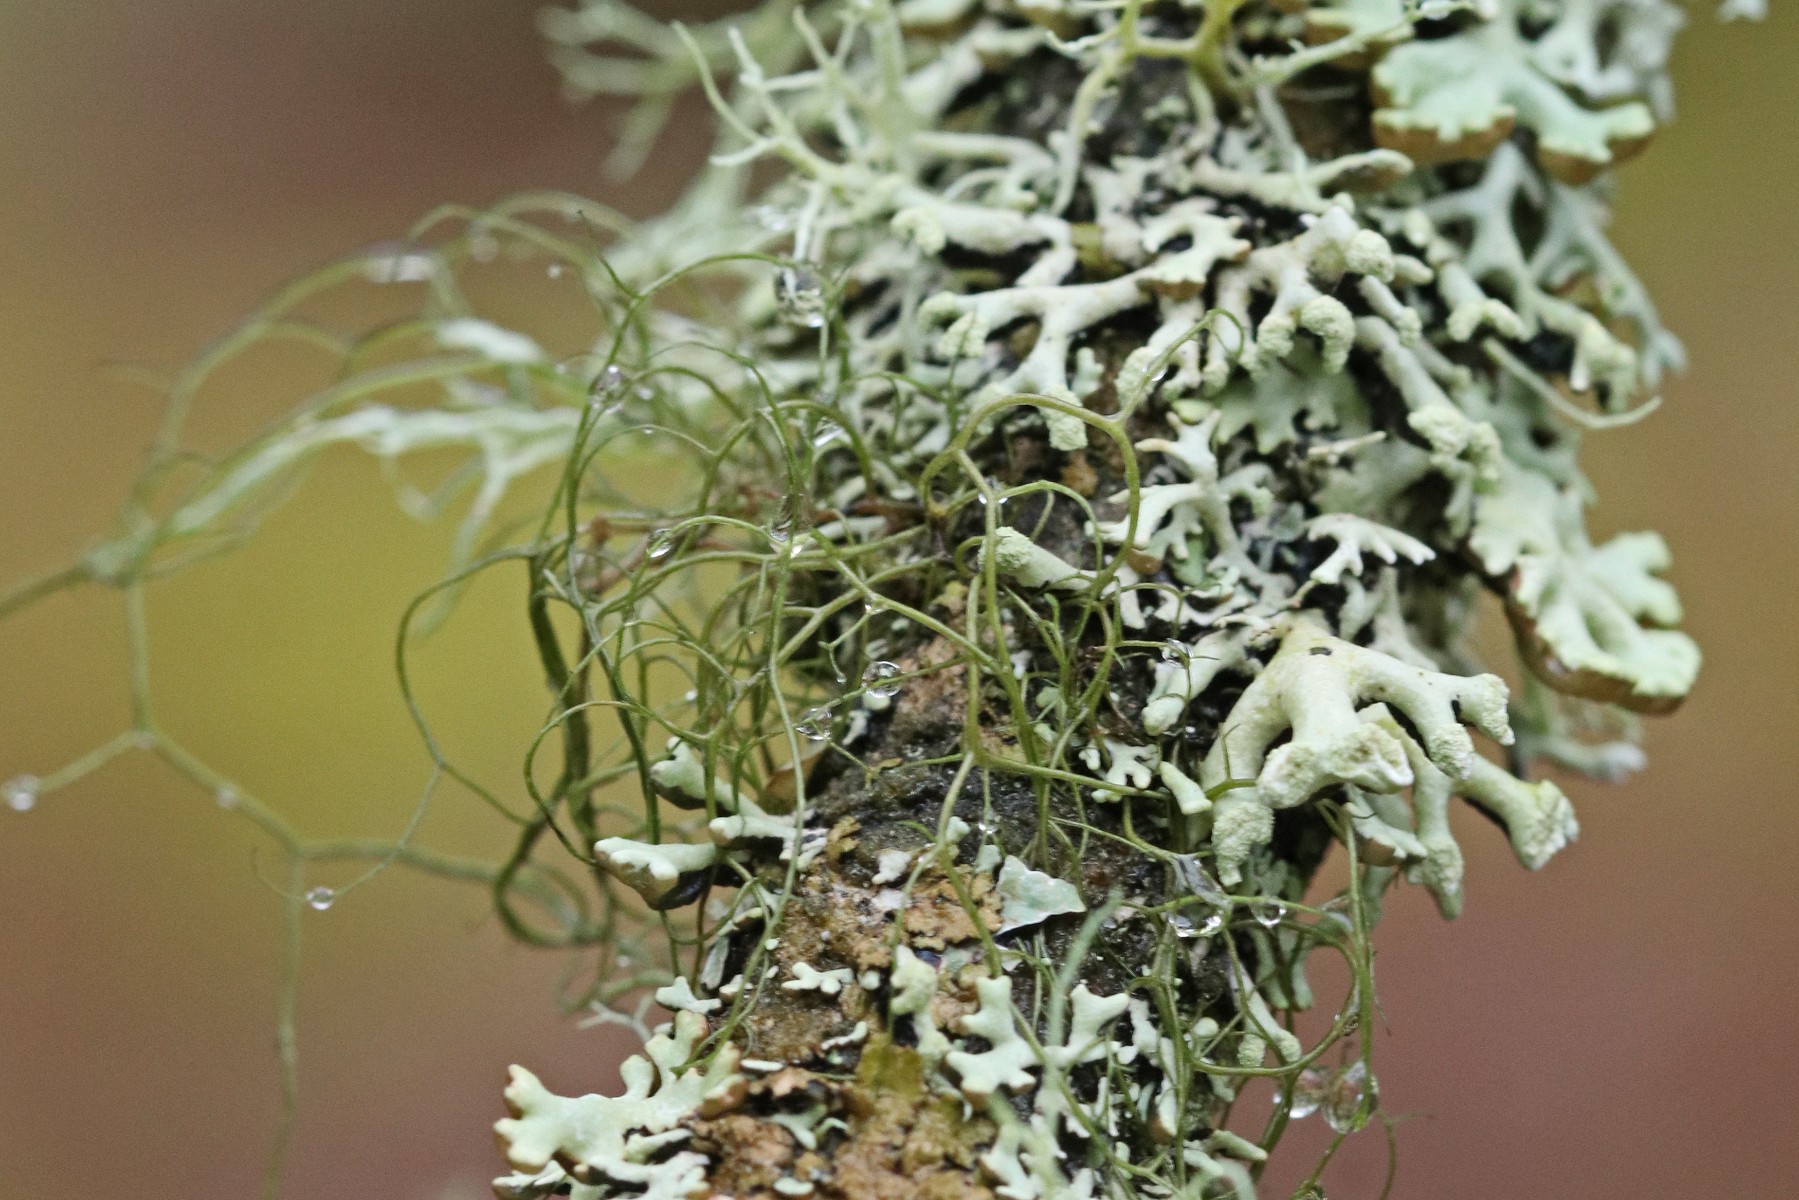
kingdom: Fungi
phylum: Ascomycota
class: Lecanoromycetes
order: Lecanorales
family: Parmeliaceae
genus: Bryoria
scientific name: Bryoria fuscescens
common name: almindelig mankelav
